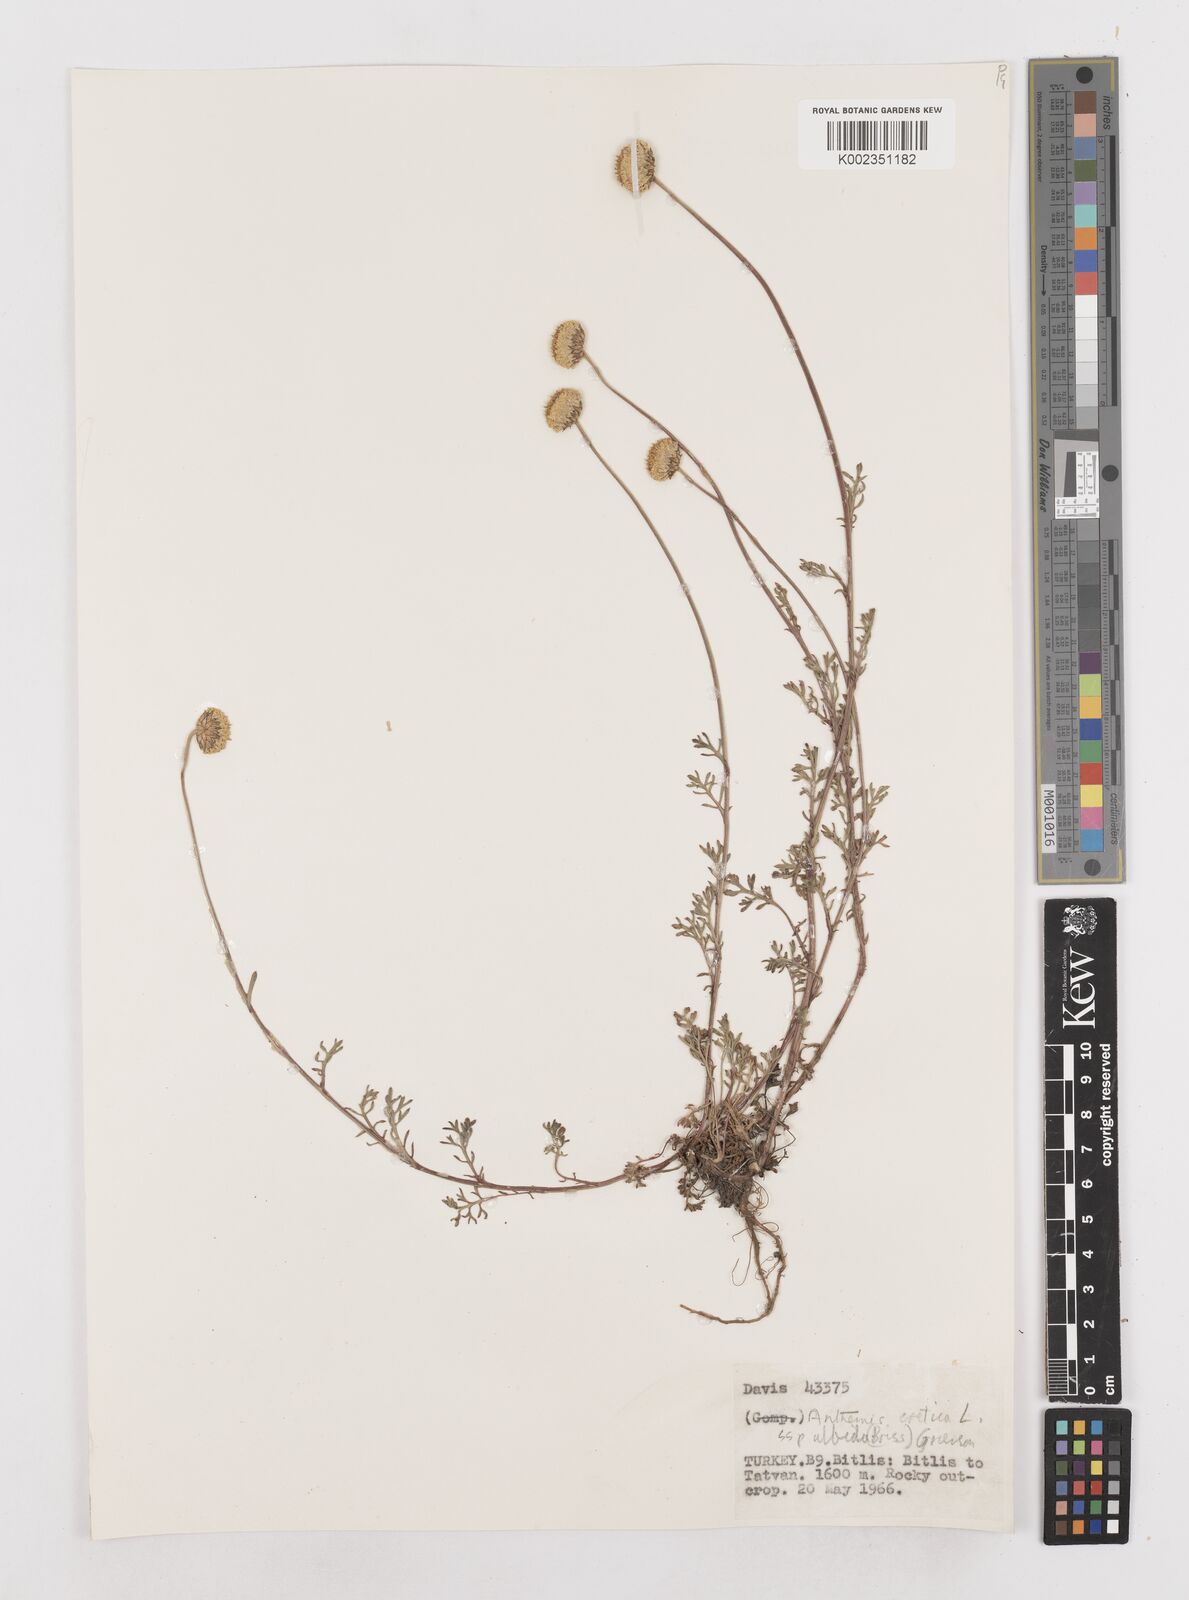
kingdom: Plantae
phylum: Tracheophyta
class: Magnoliopsida
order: Asterales
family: Asteraceae
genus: Anthemis
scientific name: Anthemis cretica
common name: Mountain dog-daisy
